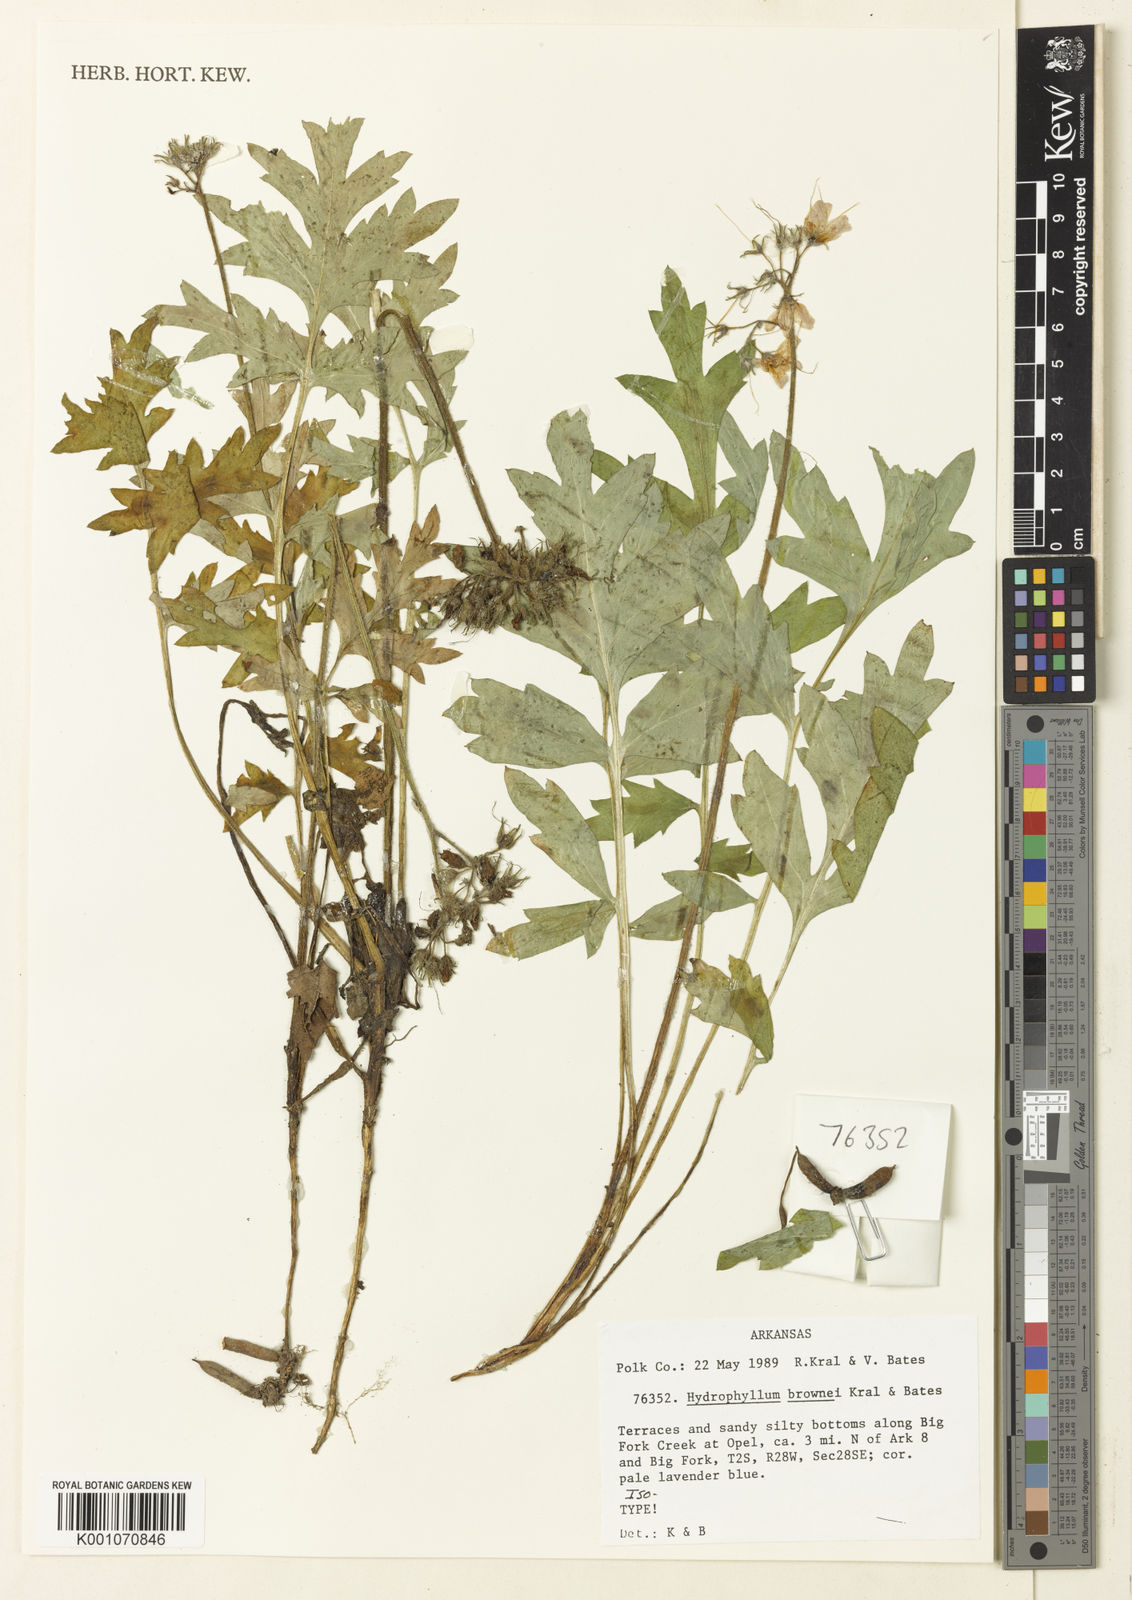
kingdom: Plantae
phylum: Tracheophyta
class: Magnoliopsida
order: Boraginales
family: Hydrophyllaceae
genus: Hydrophyllum
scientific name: Hydrophyllum brownei
